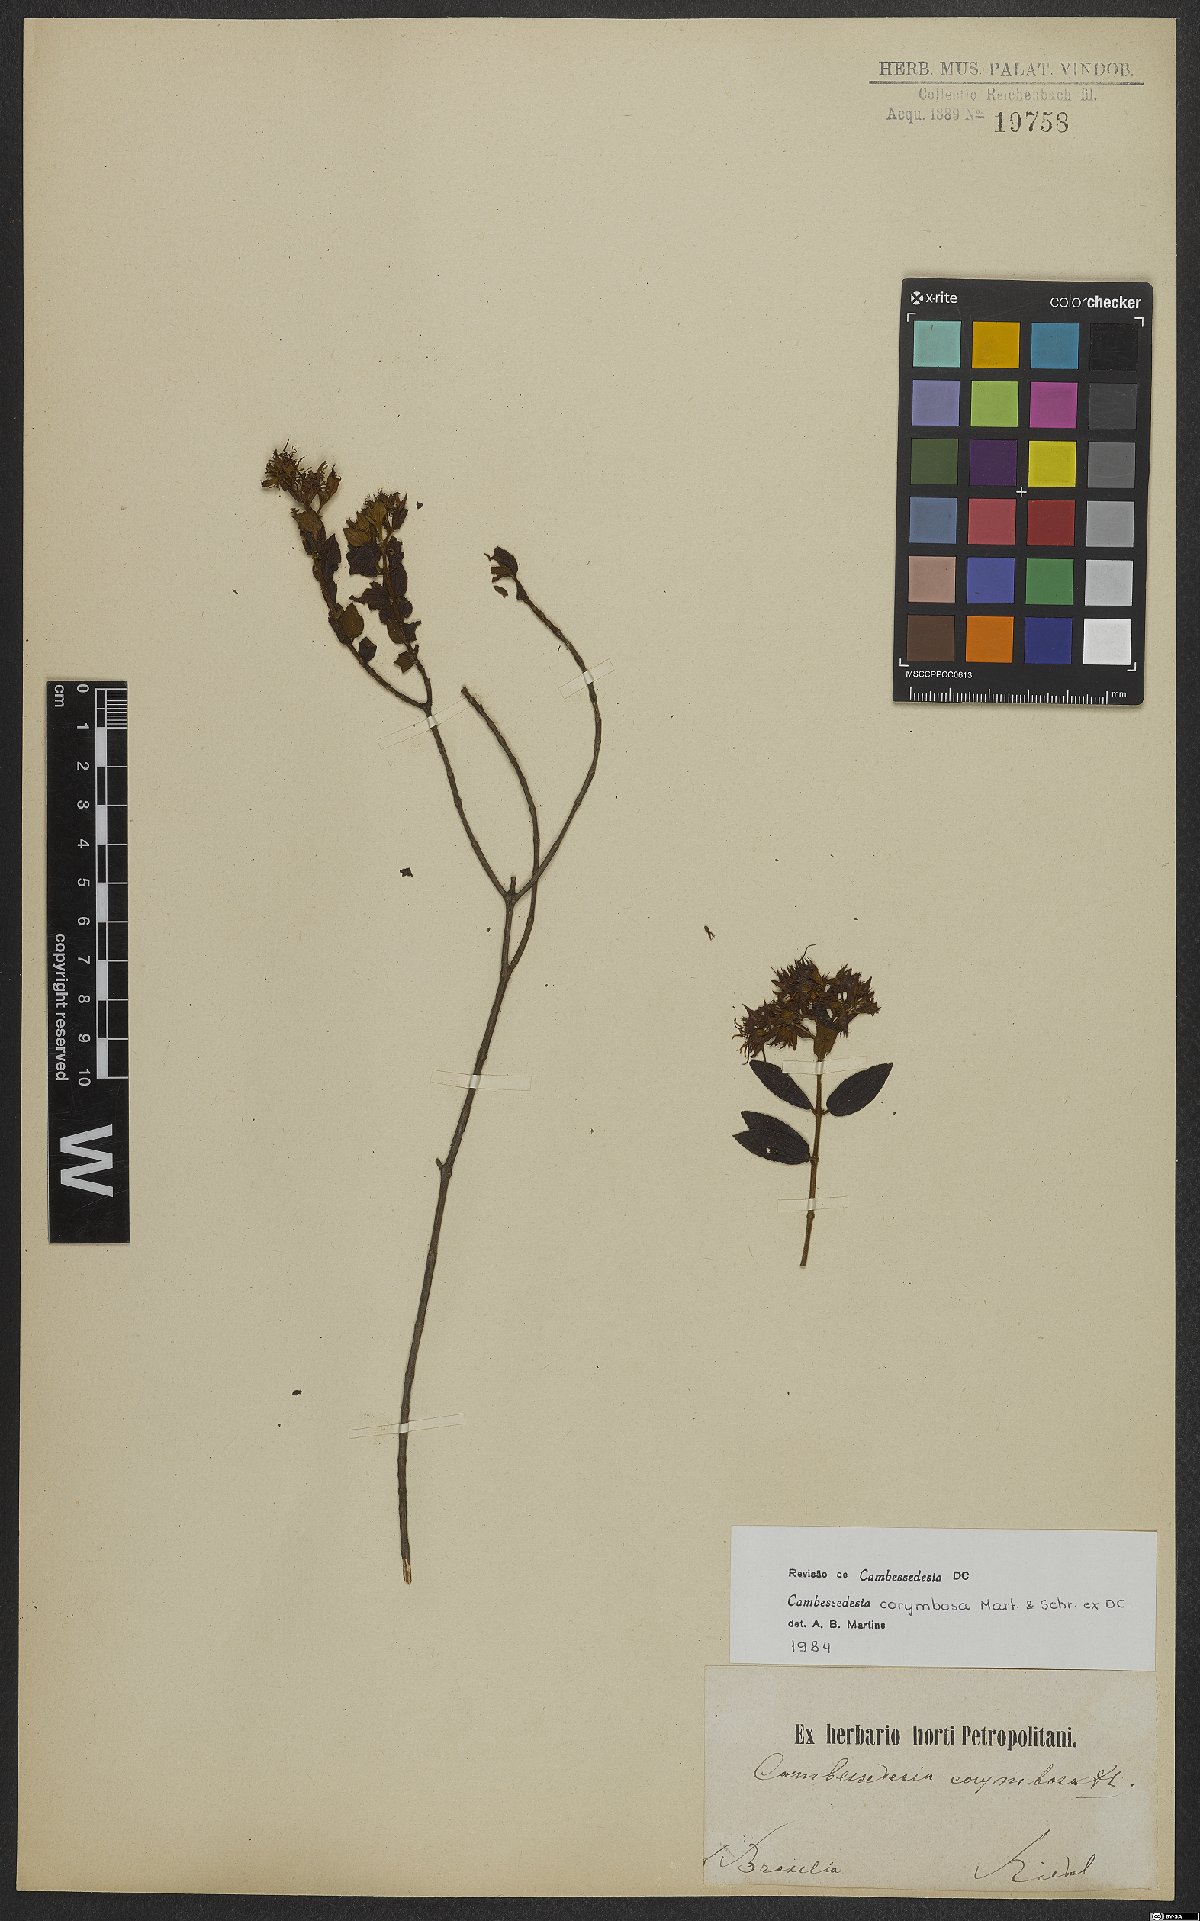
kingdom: Plantae
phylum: Tracheophyta
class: Magnoliopsida
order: Myrtales
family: Melastomataceae
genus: Cambessedesia
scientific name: Cambessedesia corymbosa
